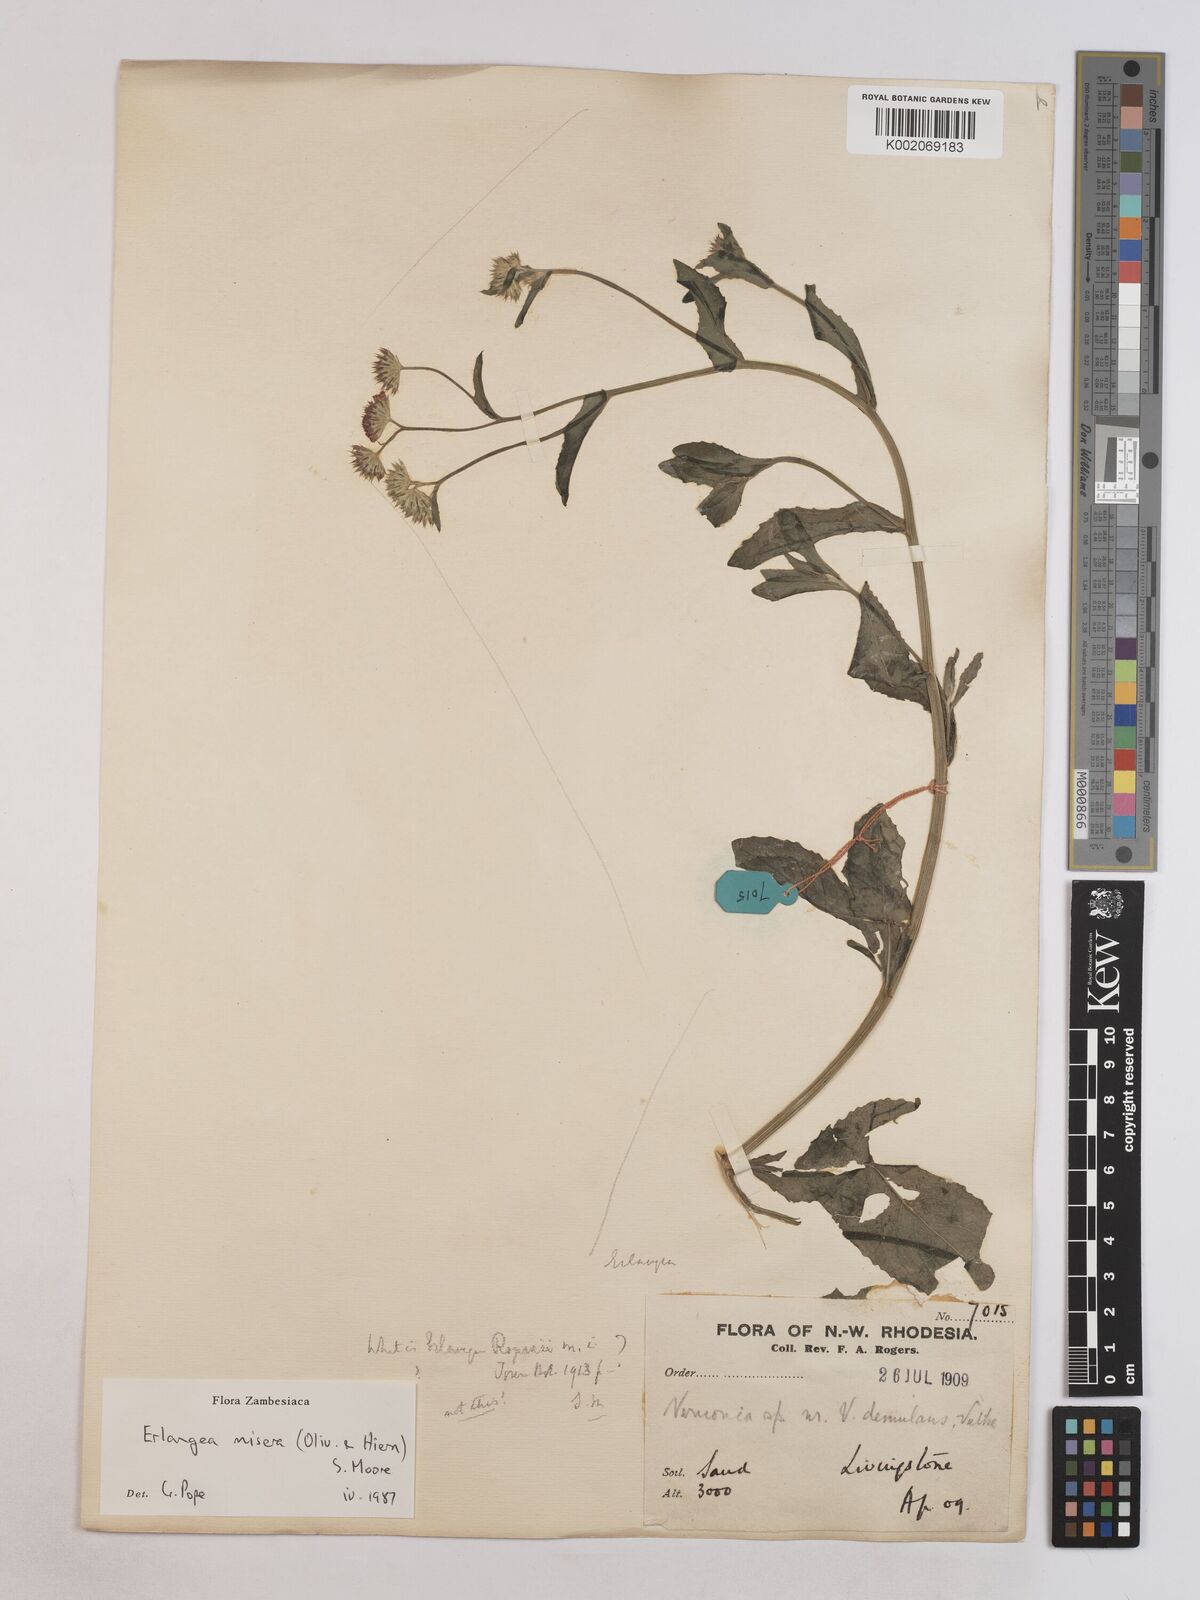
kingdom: Plantae
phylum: Tracheophyta
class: Magnoliopsida
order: Asterales
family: Asteraceae
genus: Erlangea
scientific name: Erlangea misera
